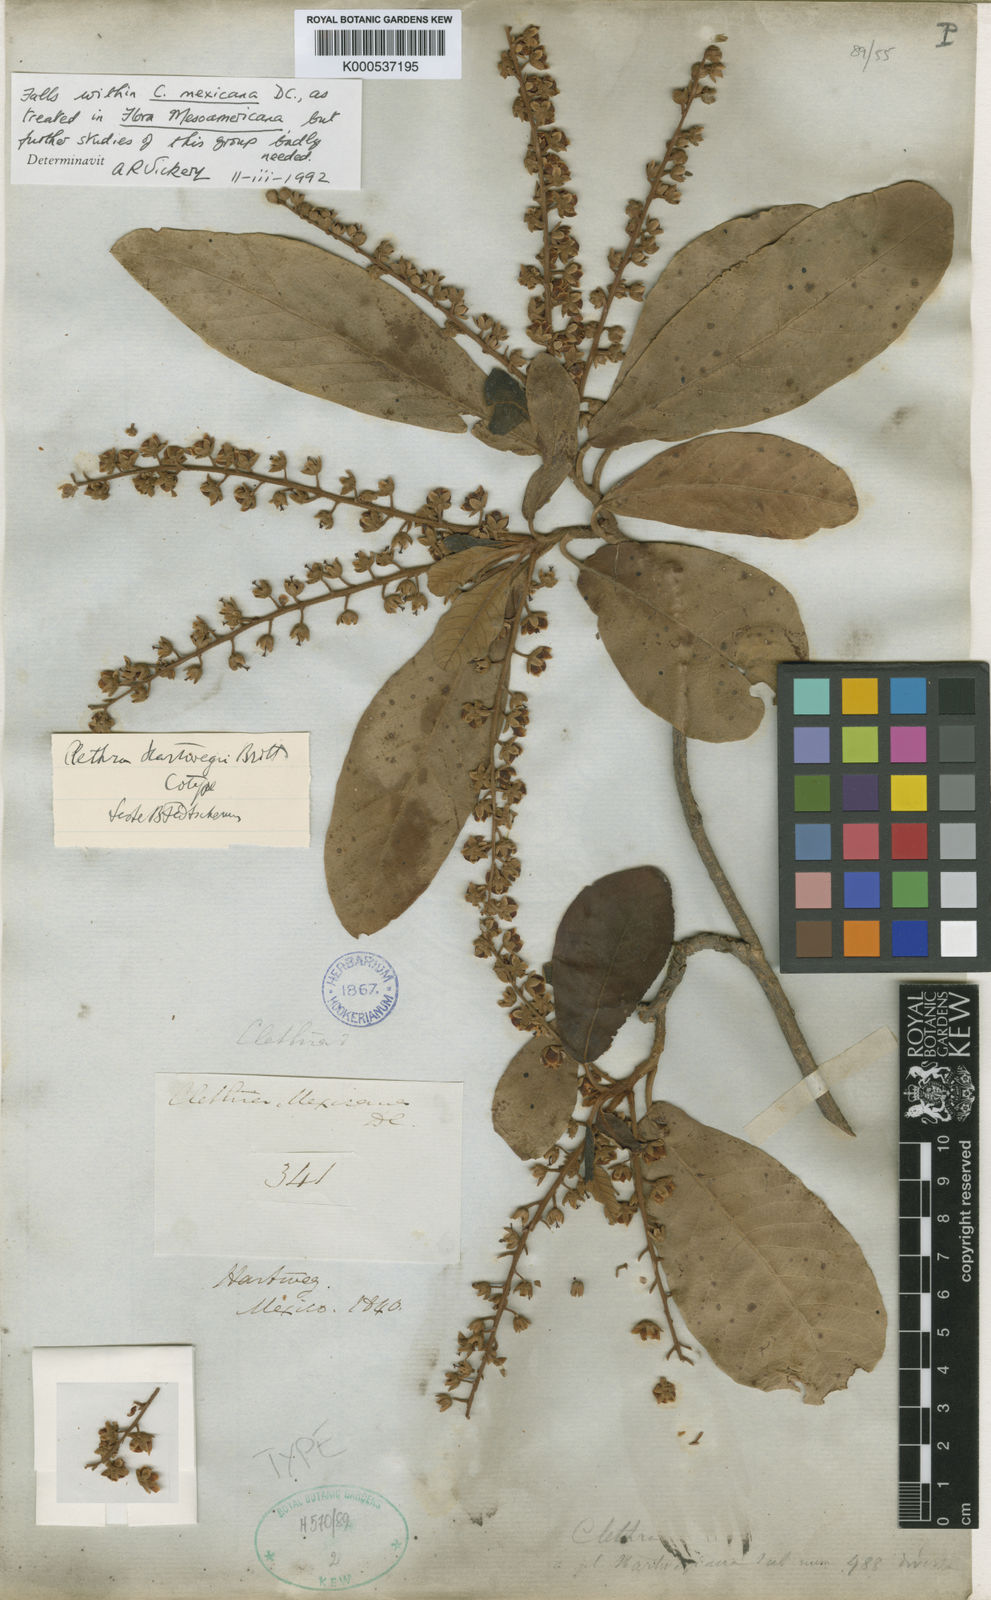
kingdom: Plantae
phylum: Tracheophyta
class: Magnoliopsida
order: Ericales
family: Clethraceae
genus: Clethra
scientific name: Clethra hartwegii
